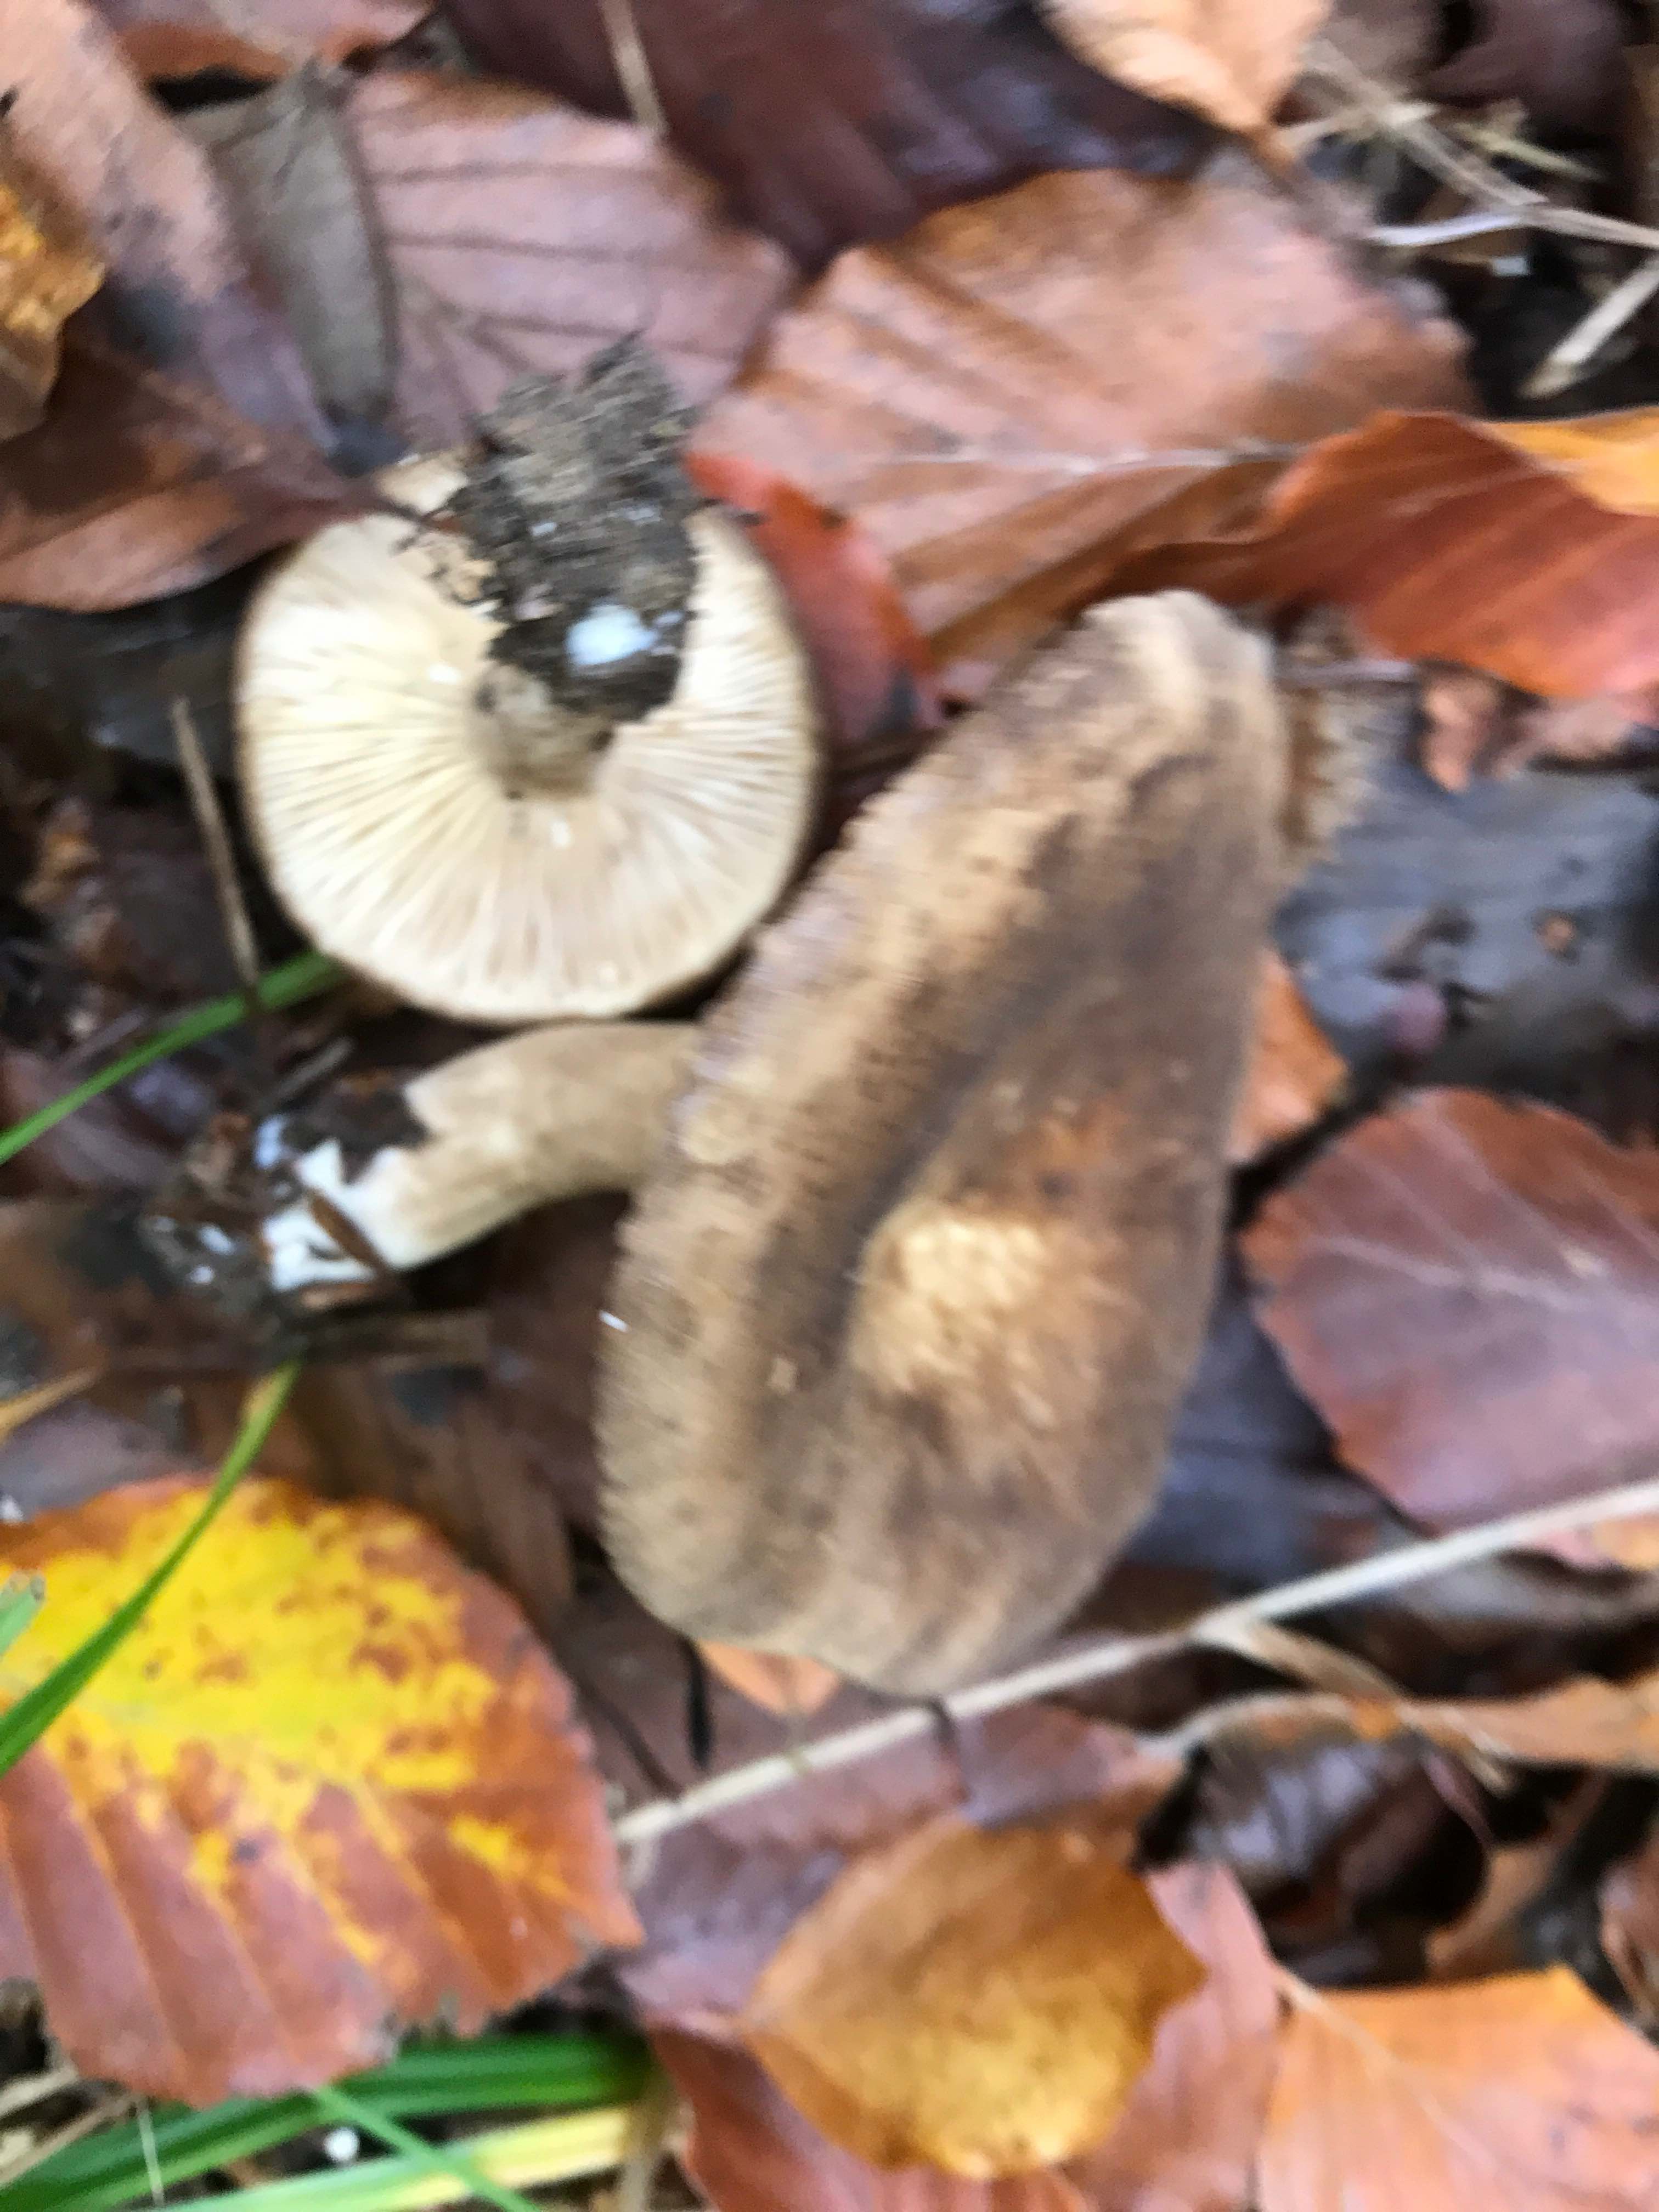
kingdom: Fungi
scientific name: Fungi
